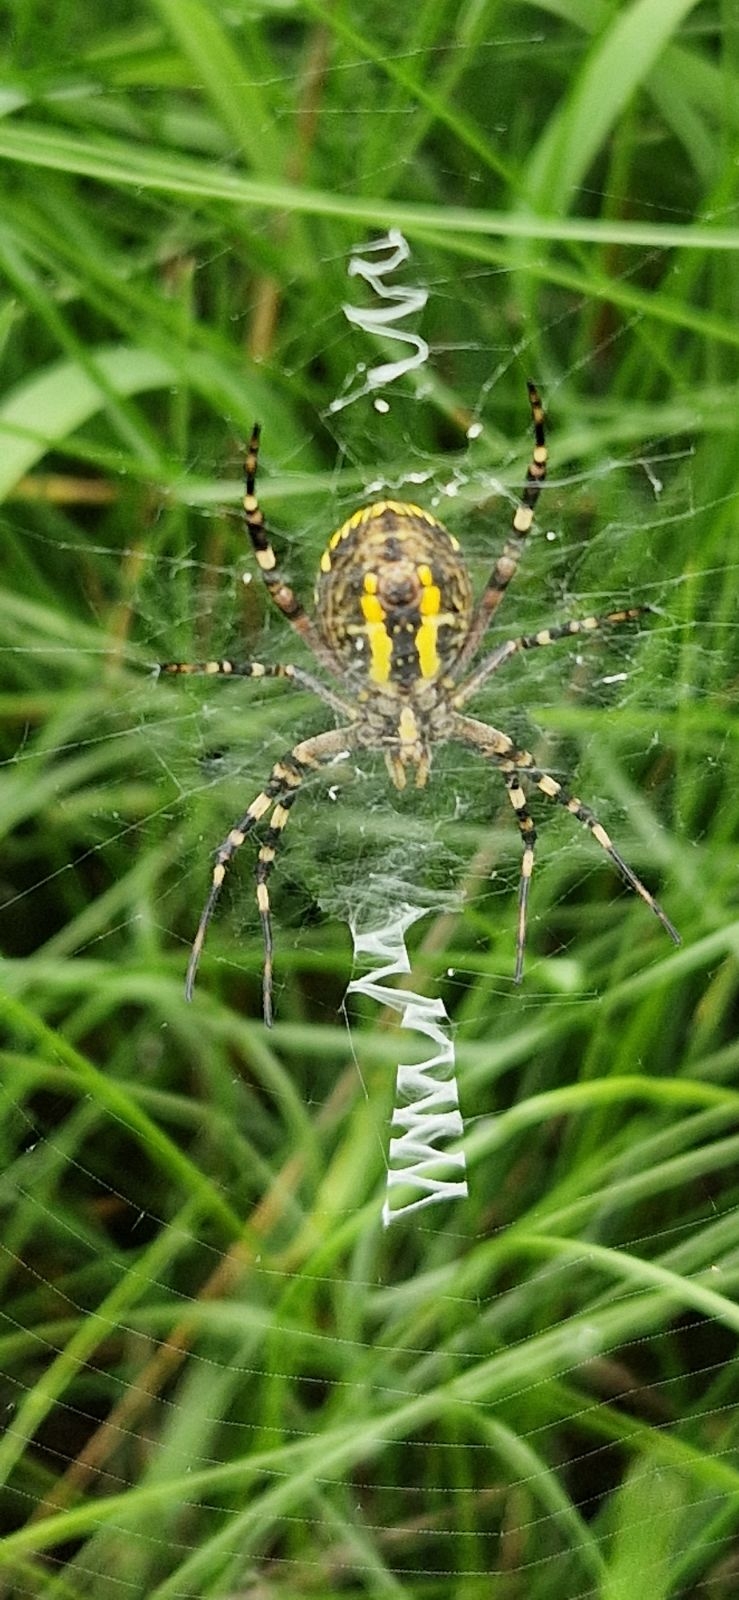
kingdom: Animalia
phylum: Arthropoda
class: Arachnida
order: Araneae
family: Araneidae
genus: Argiope
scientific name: Argiope bruennichi
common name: Hvepseedderkop
